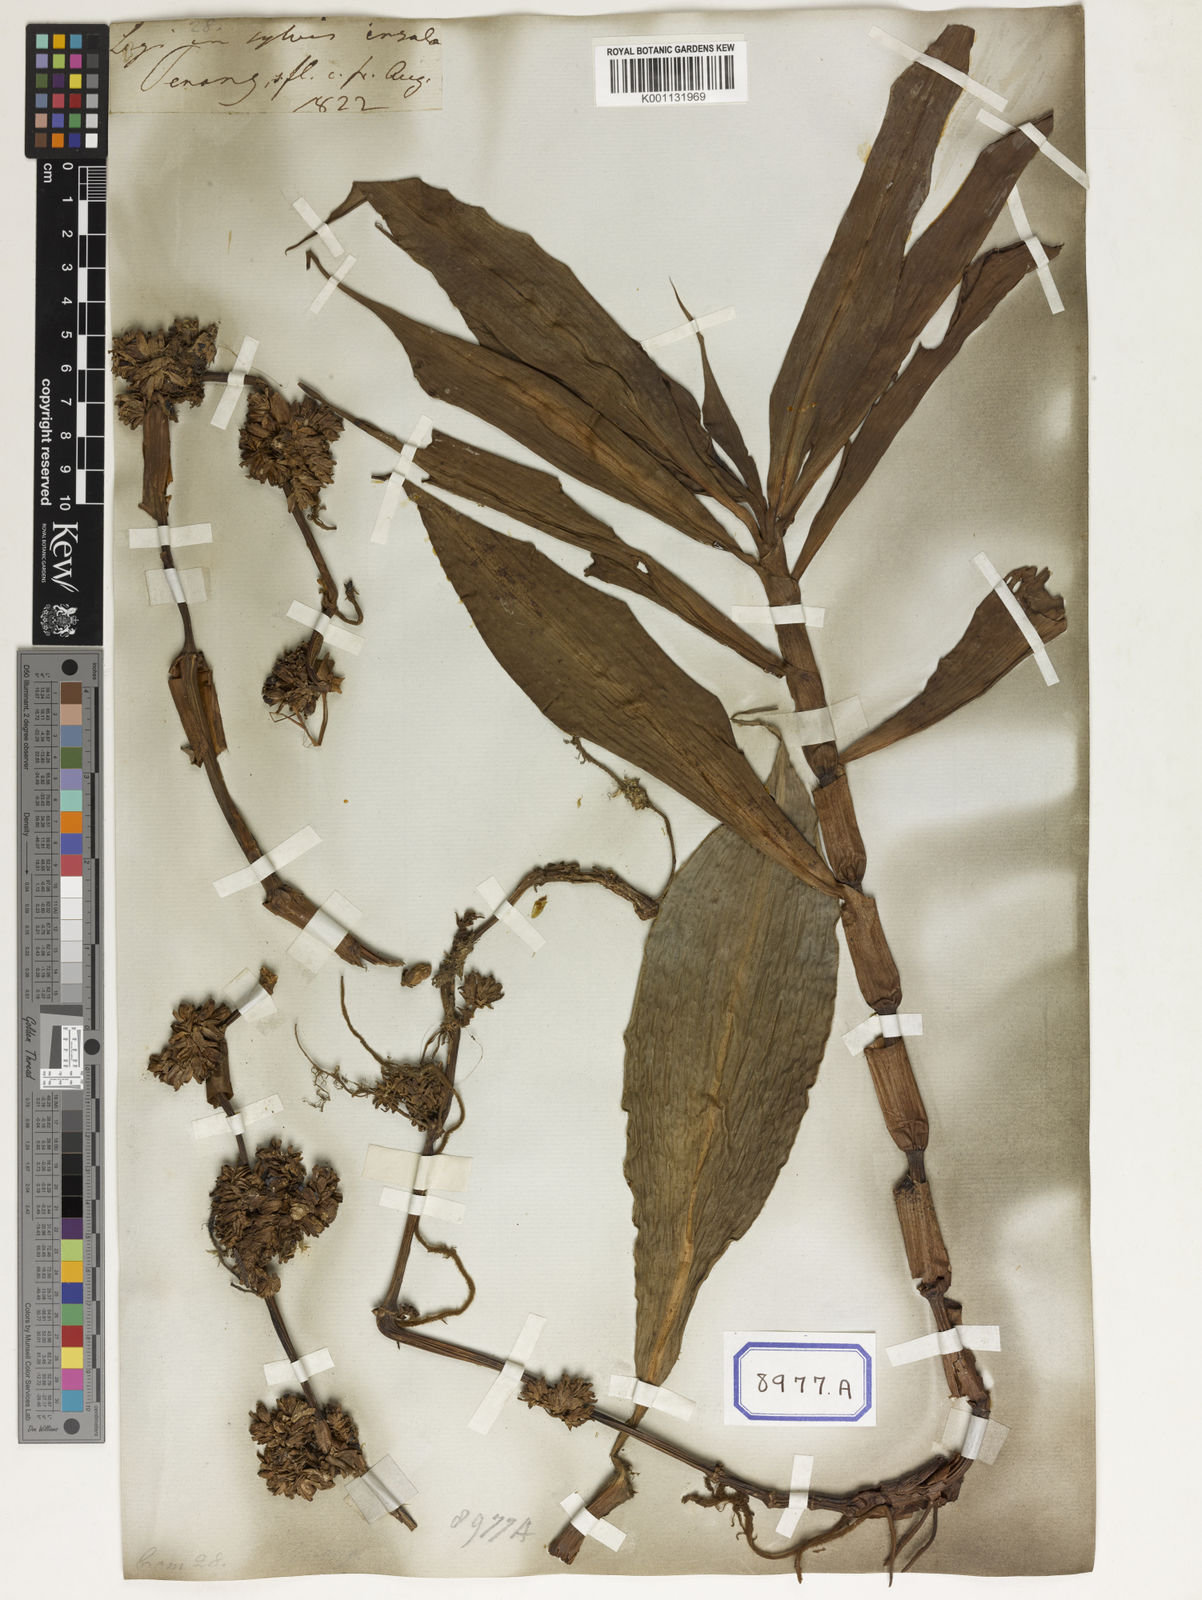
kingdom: Plantae
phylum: Tracheophyta
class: Liliopsida
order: Commelinales
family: Commelinaceae
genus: Amischotolype
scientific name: Amischotolype marginata
